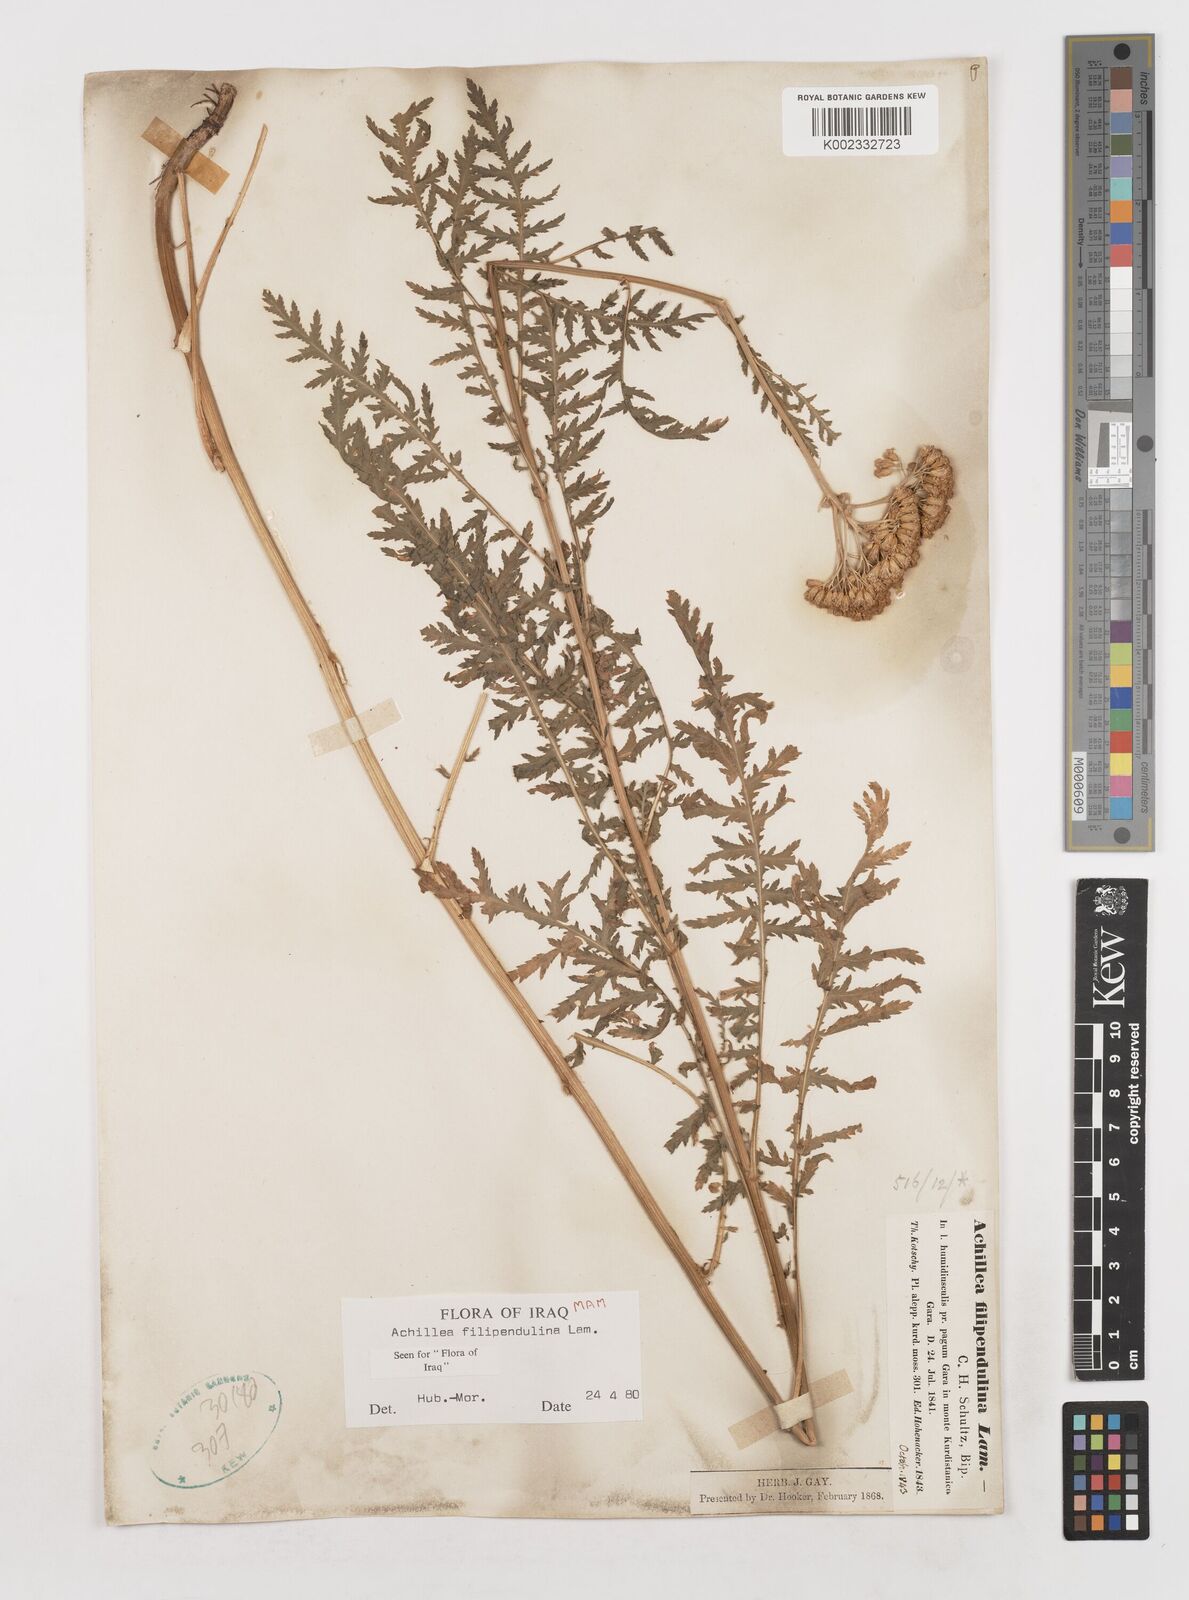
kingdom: Plantae
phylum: Tracheophyta
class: Magnoliopsida
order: Asterales
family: Asteraceae
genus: Achillea
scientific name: Achillea filipendulina
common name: Fernleaf yarrow
